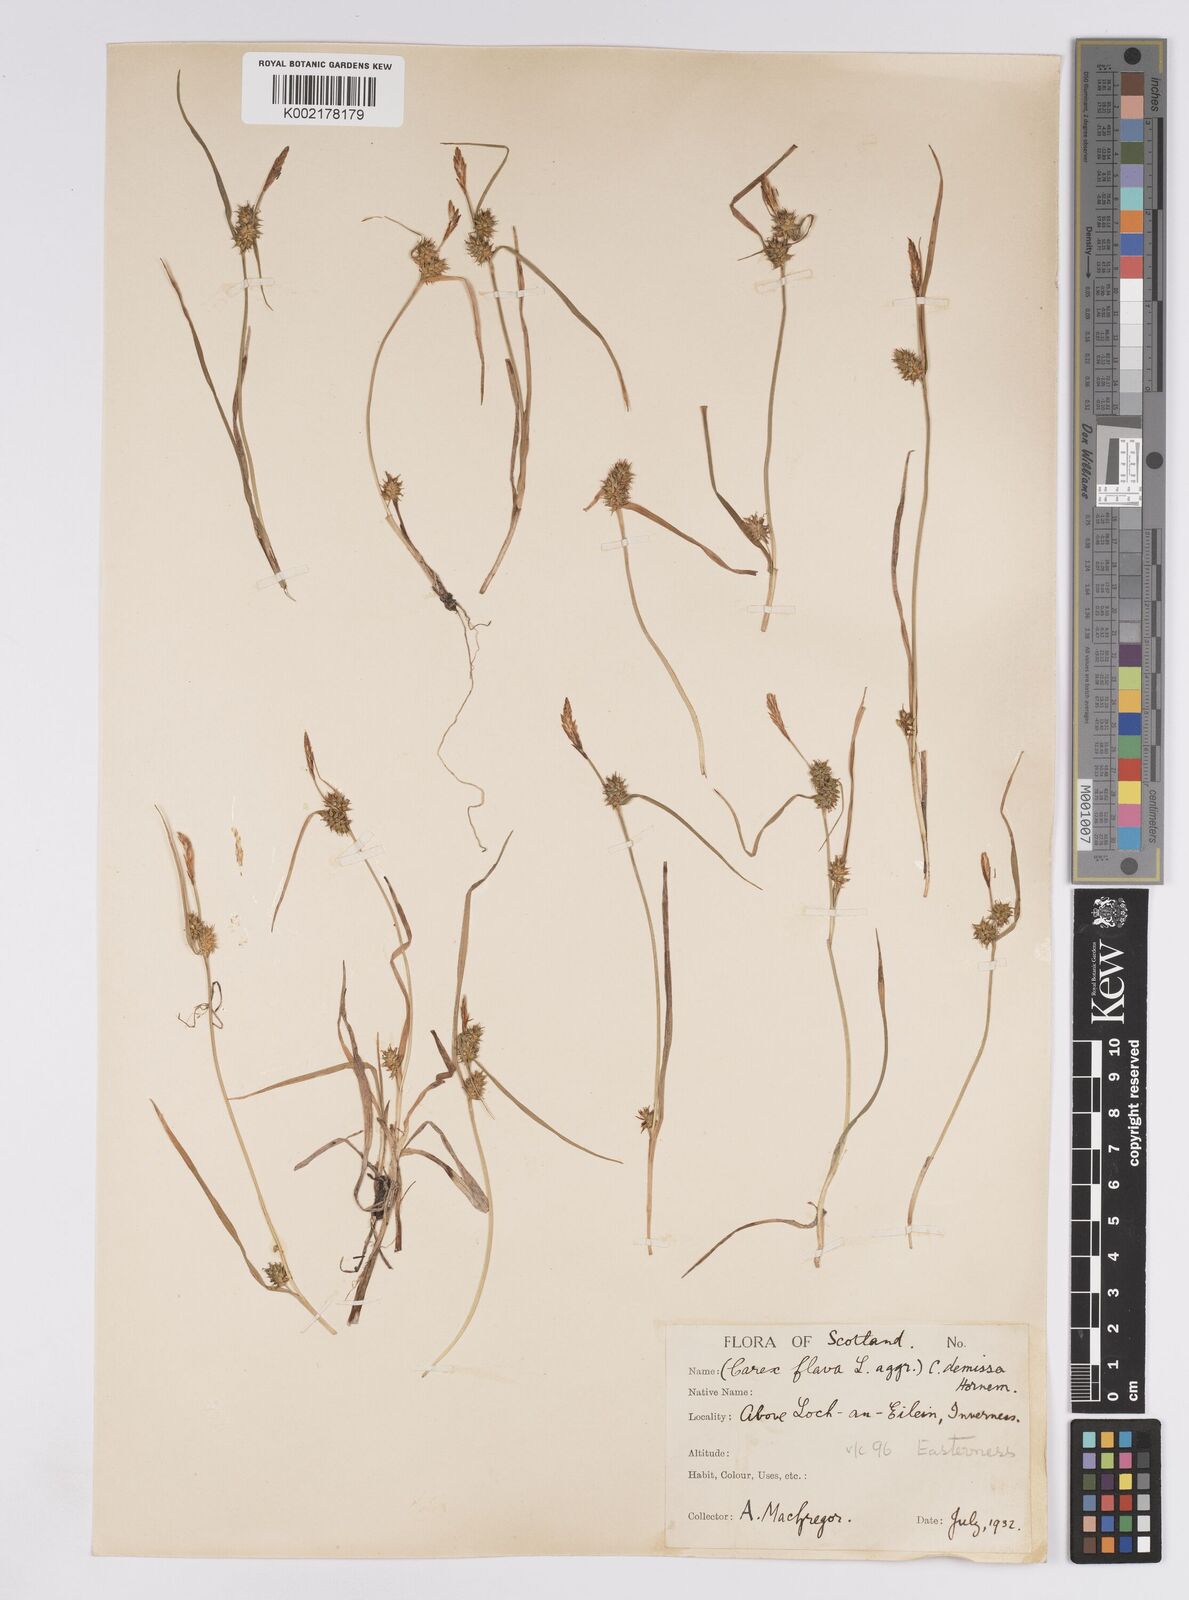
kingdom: Plantae
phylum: Tracheophyta
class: Liliopsida
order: Poales
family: Cyperaceae
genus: Carex
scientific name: Carex demissa
